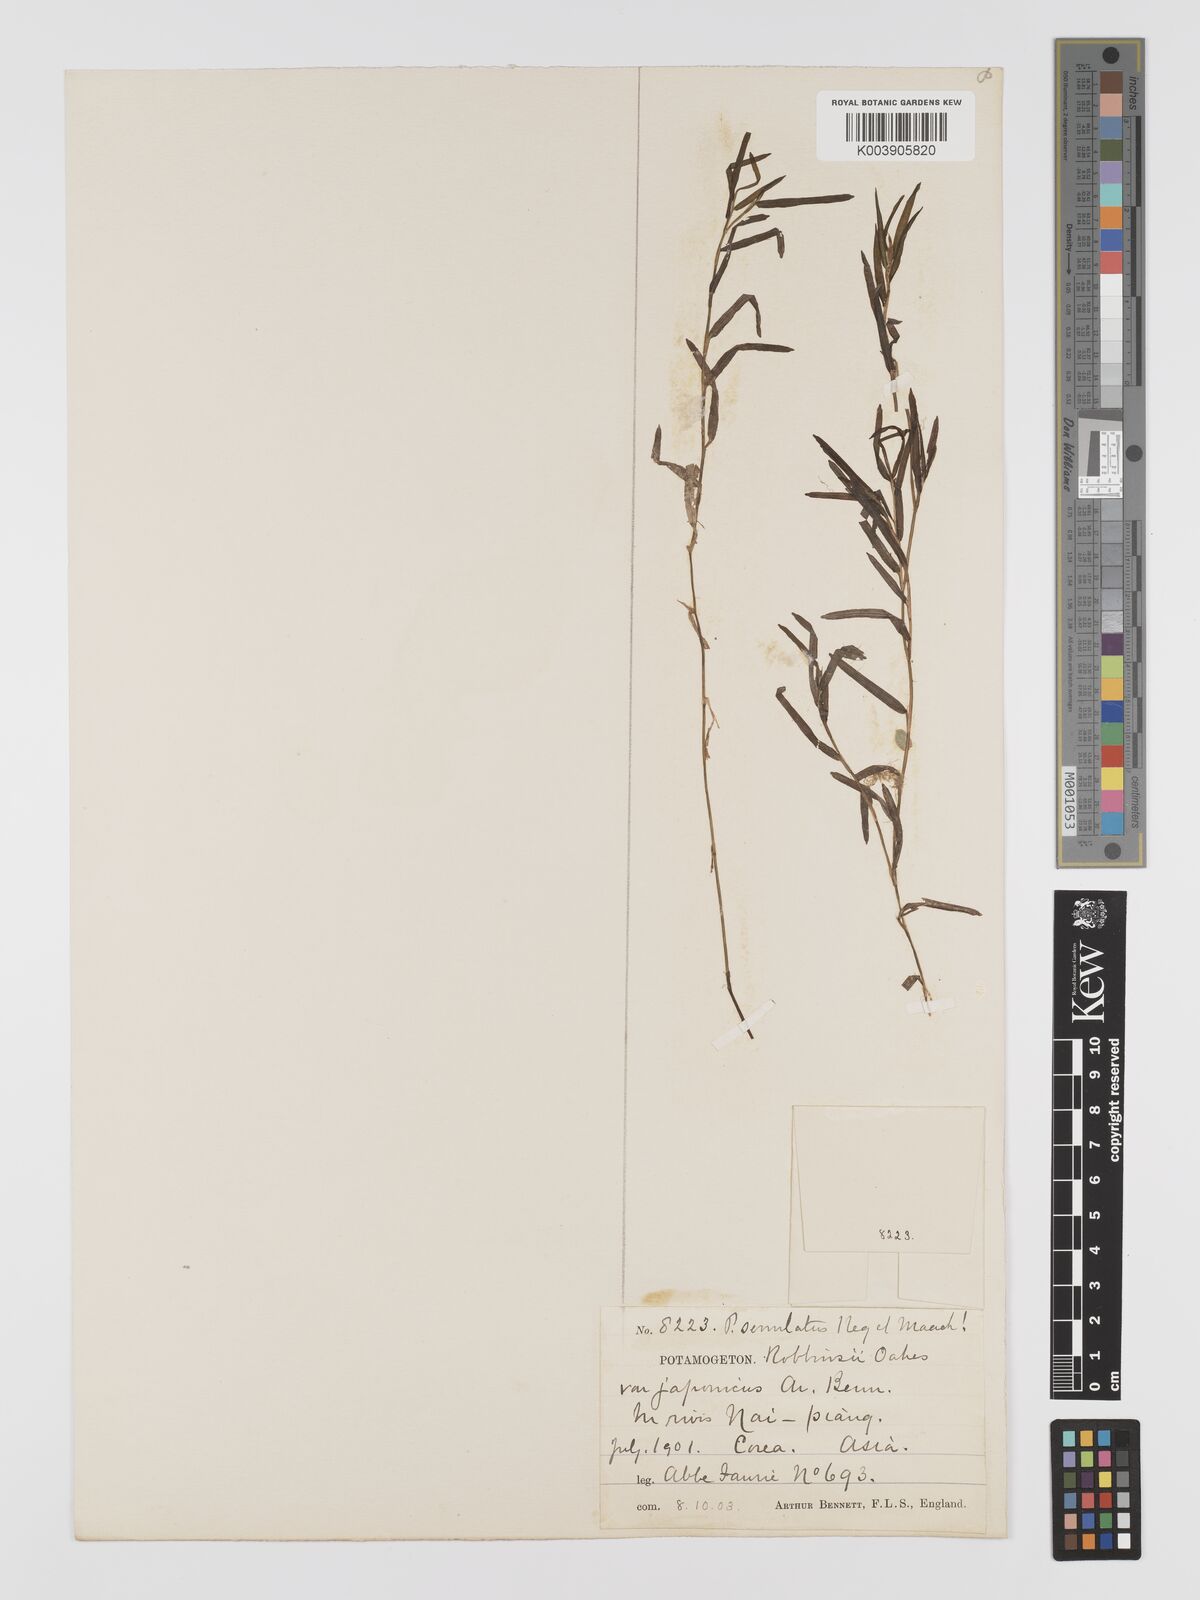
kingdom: Plantae
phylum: Tracheophyta
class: Liliopsida
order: Alismatales
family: Potamogetonaceae
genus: Potamogeton
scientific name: Potamogeton maackianus
